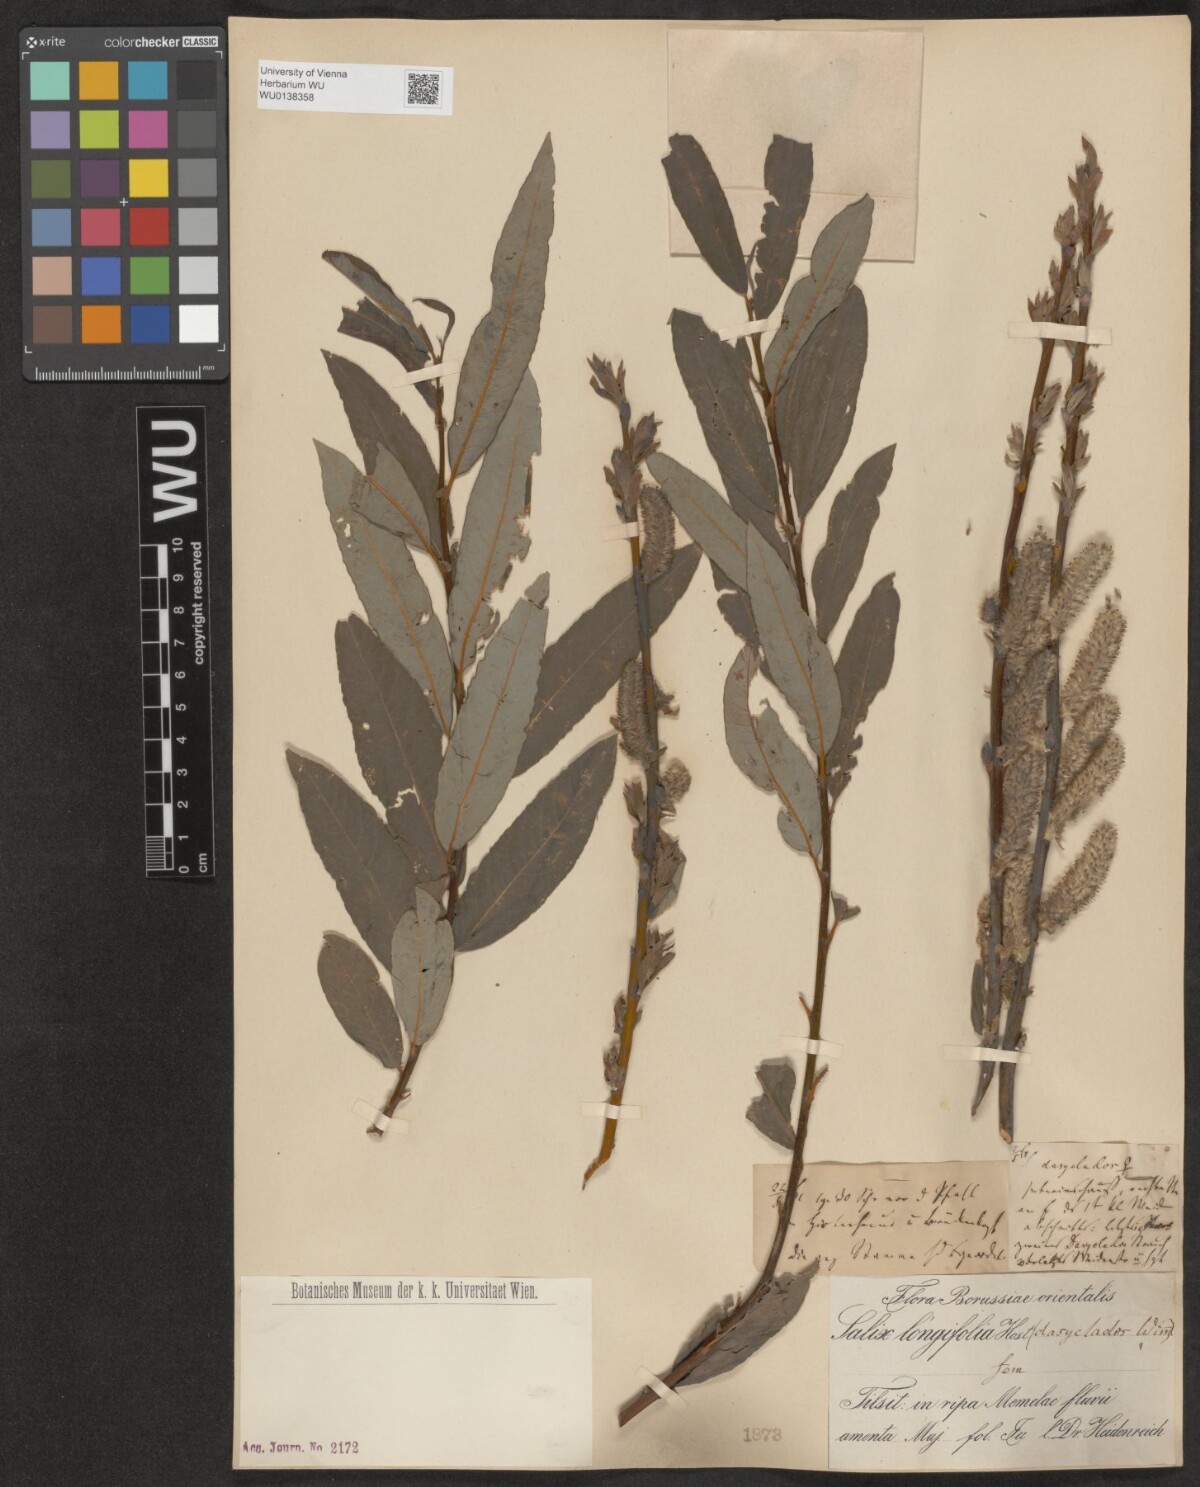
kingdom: Plantae
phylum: Tracheophyta
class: Magnoliopsida
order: Malpighiales
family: Salicaceae
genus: Salix
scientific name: Salix interior
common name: Sandbar willow
